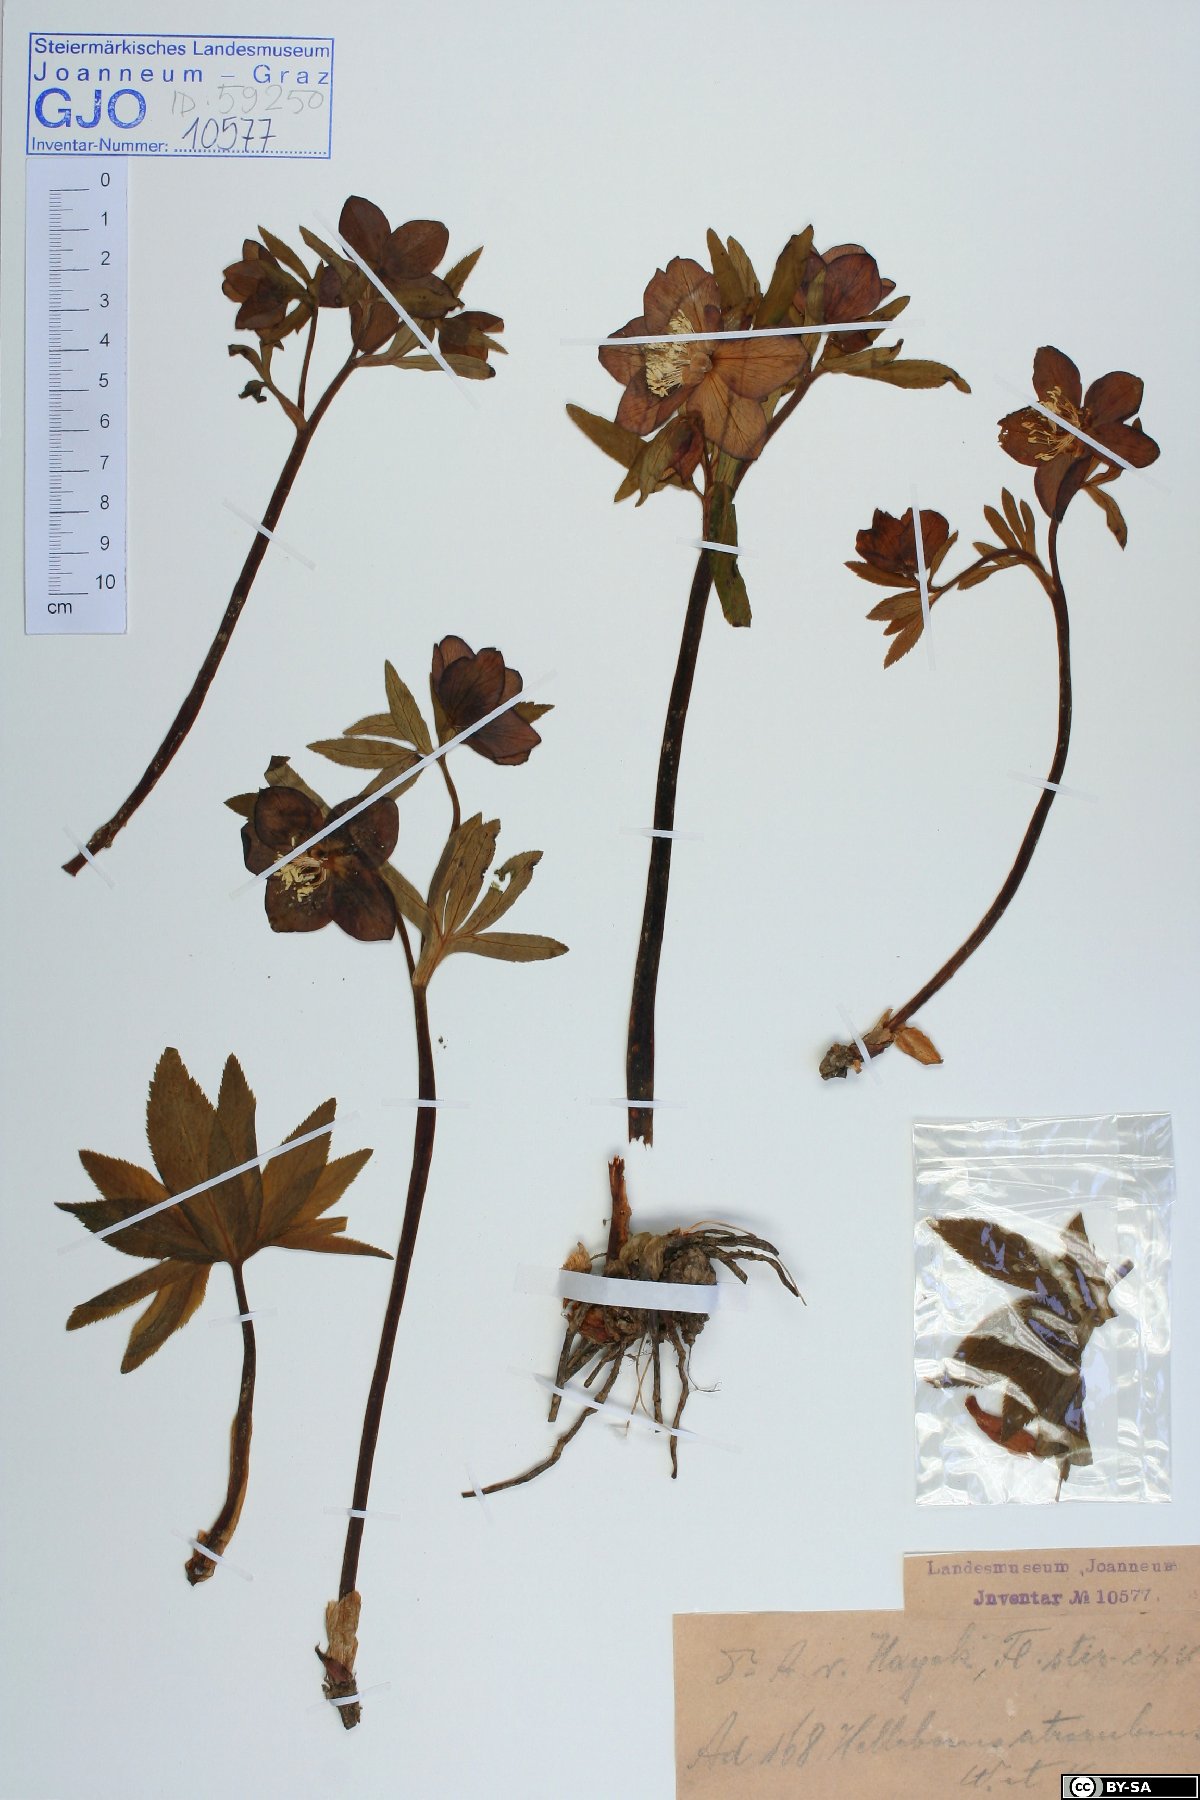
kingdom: Plantae
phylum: Tracheophyta
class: Magnoliopsida
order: Ranunculales
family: Ranunculaceae
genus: Helleborus
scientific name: Helleborus dumetorum
